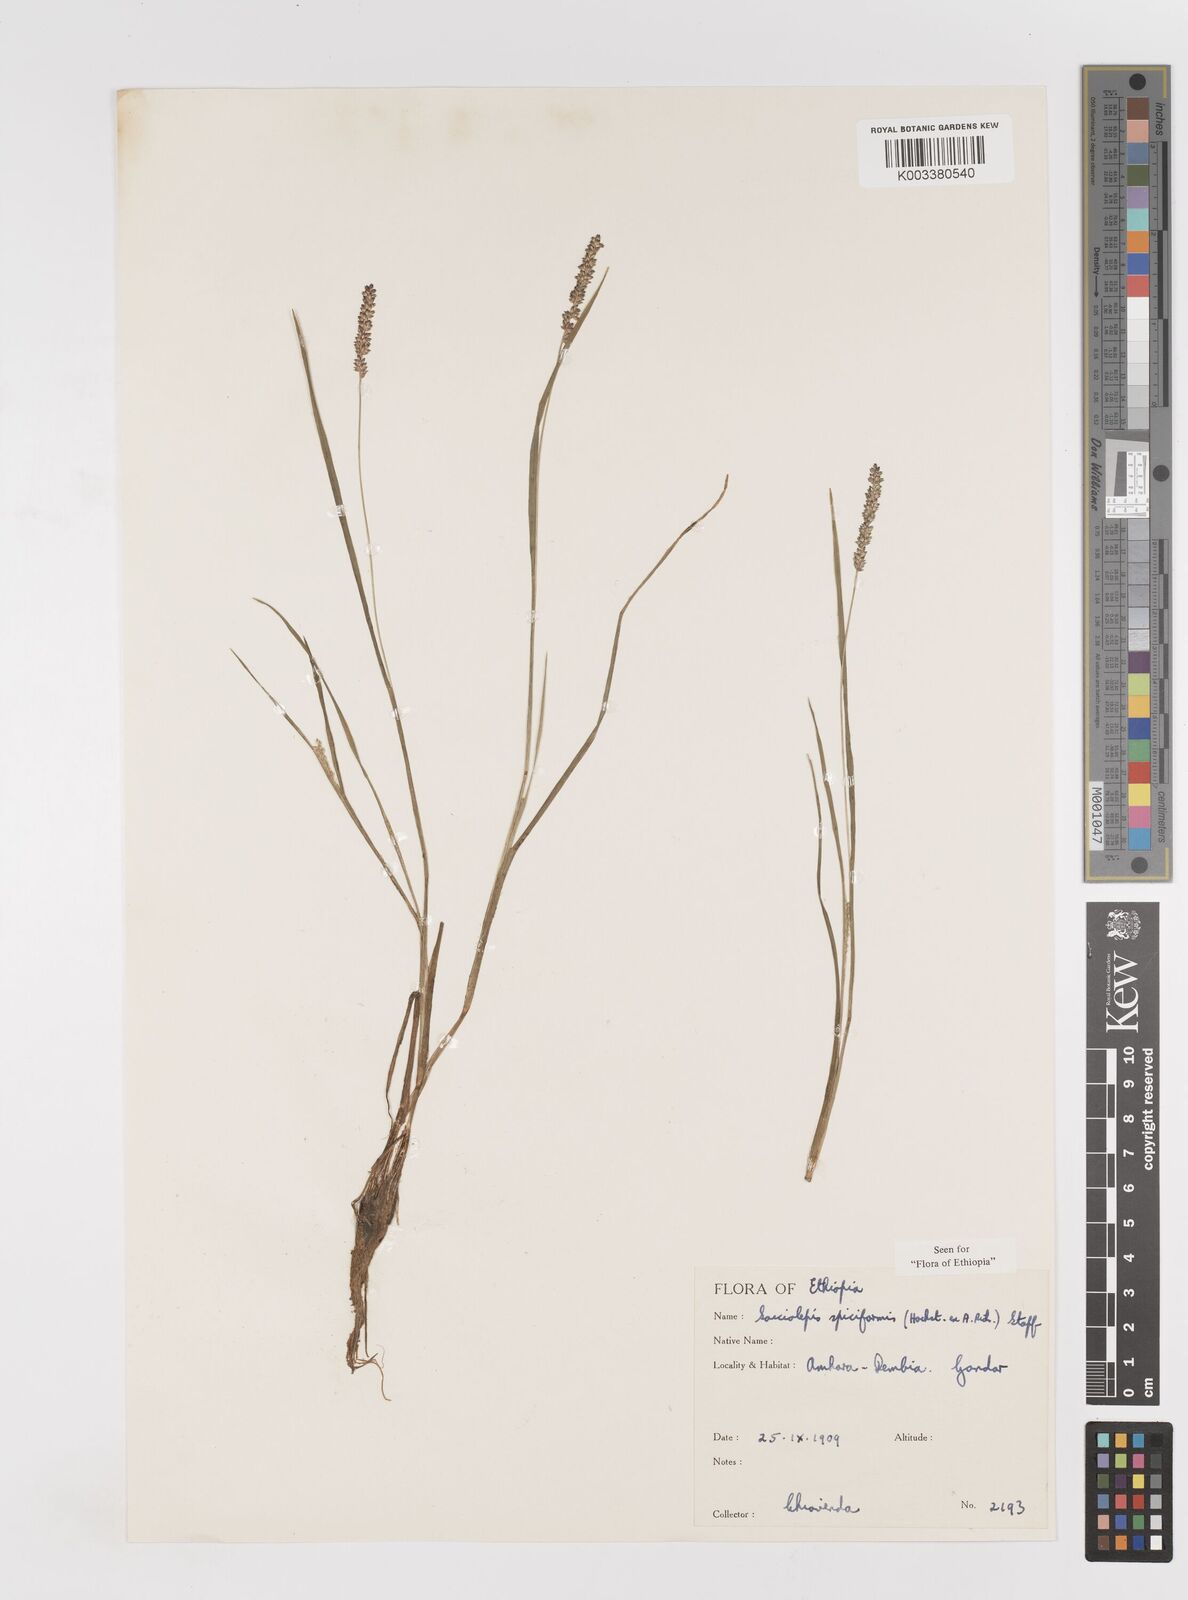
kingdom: Plantae
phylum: Tracheophyta
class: Liliopsida
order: Poales
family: Poaceae
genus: Sacciolepis
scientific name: Sacciolepis myosuroides
